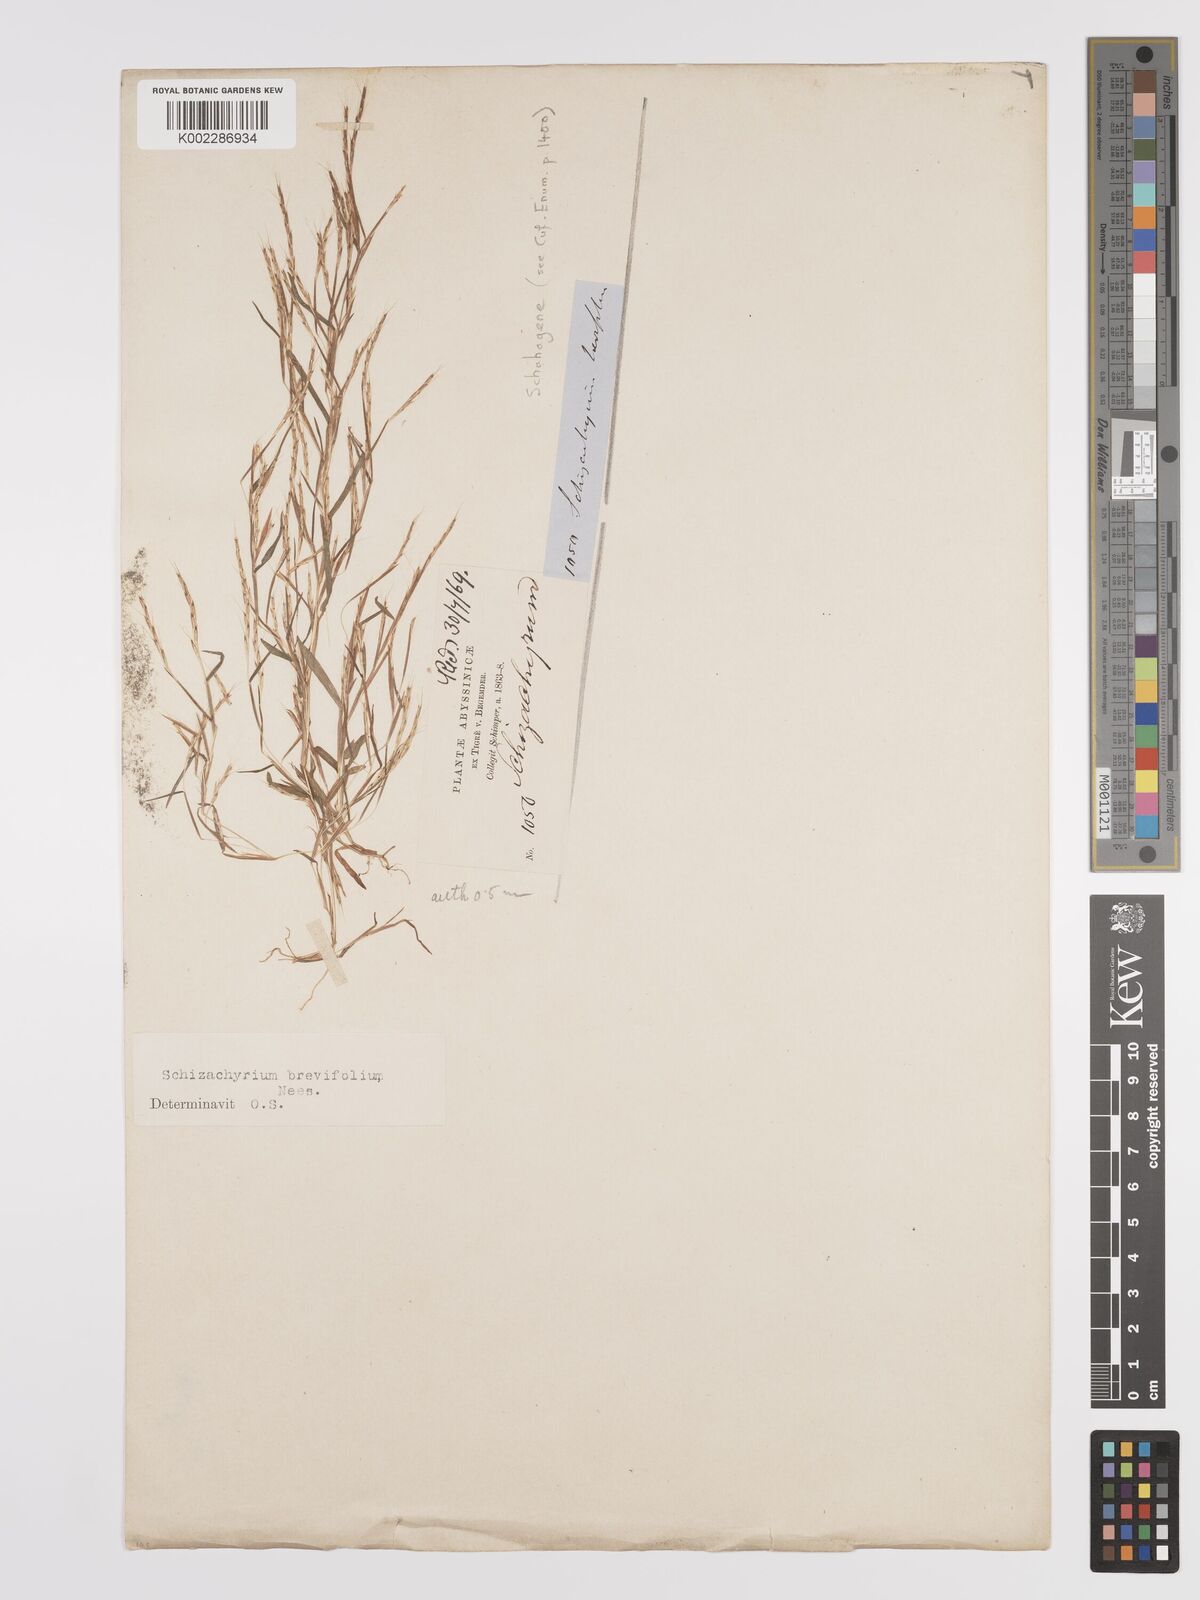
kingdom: Plantae
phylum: Tracheophyta
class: Liliopsida
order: Poales
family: Poaceae
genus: Schizachyrium
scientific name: Schizachyrium brevifolium
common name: Serillo dulce
